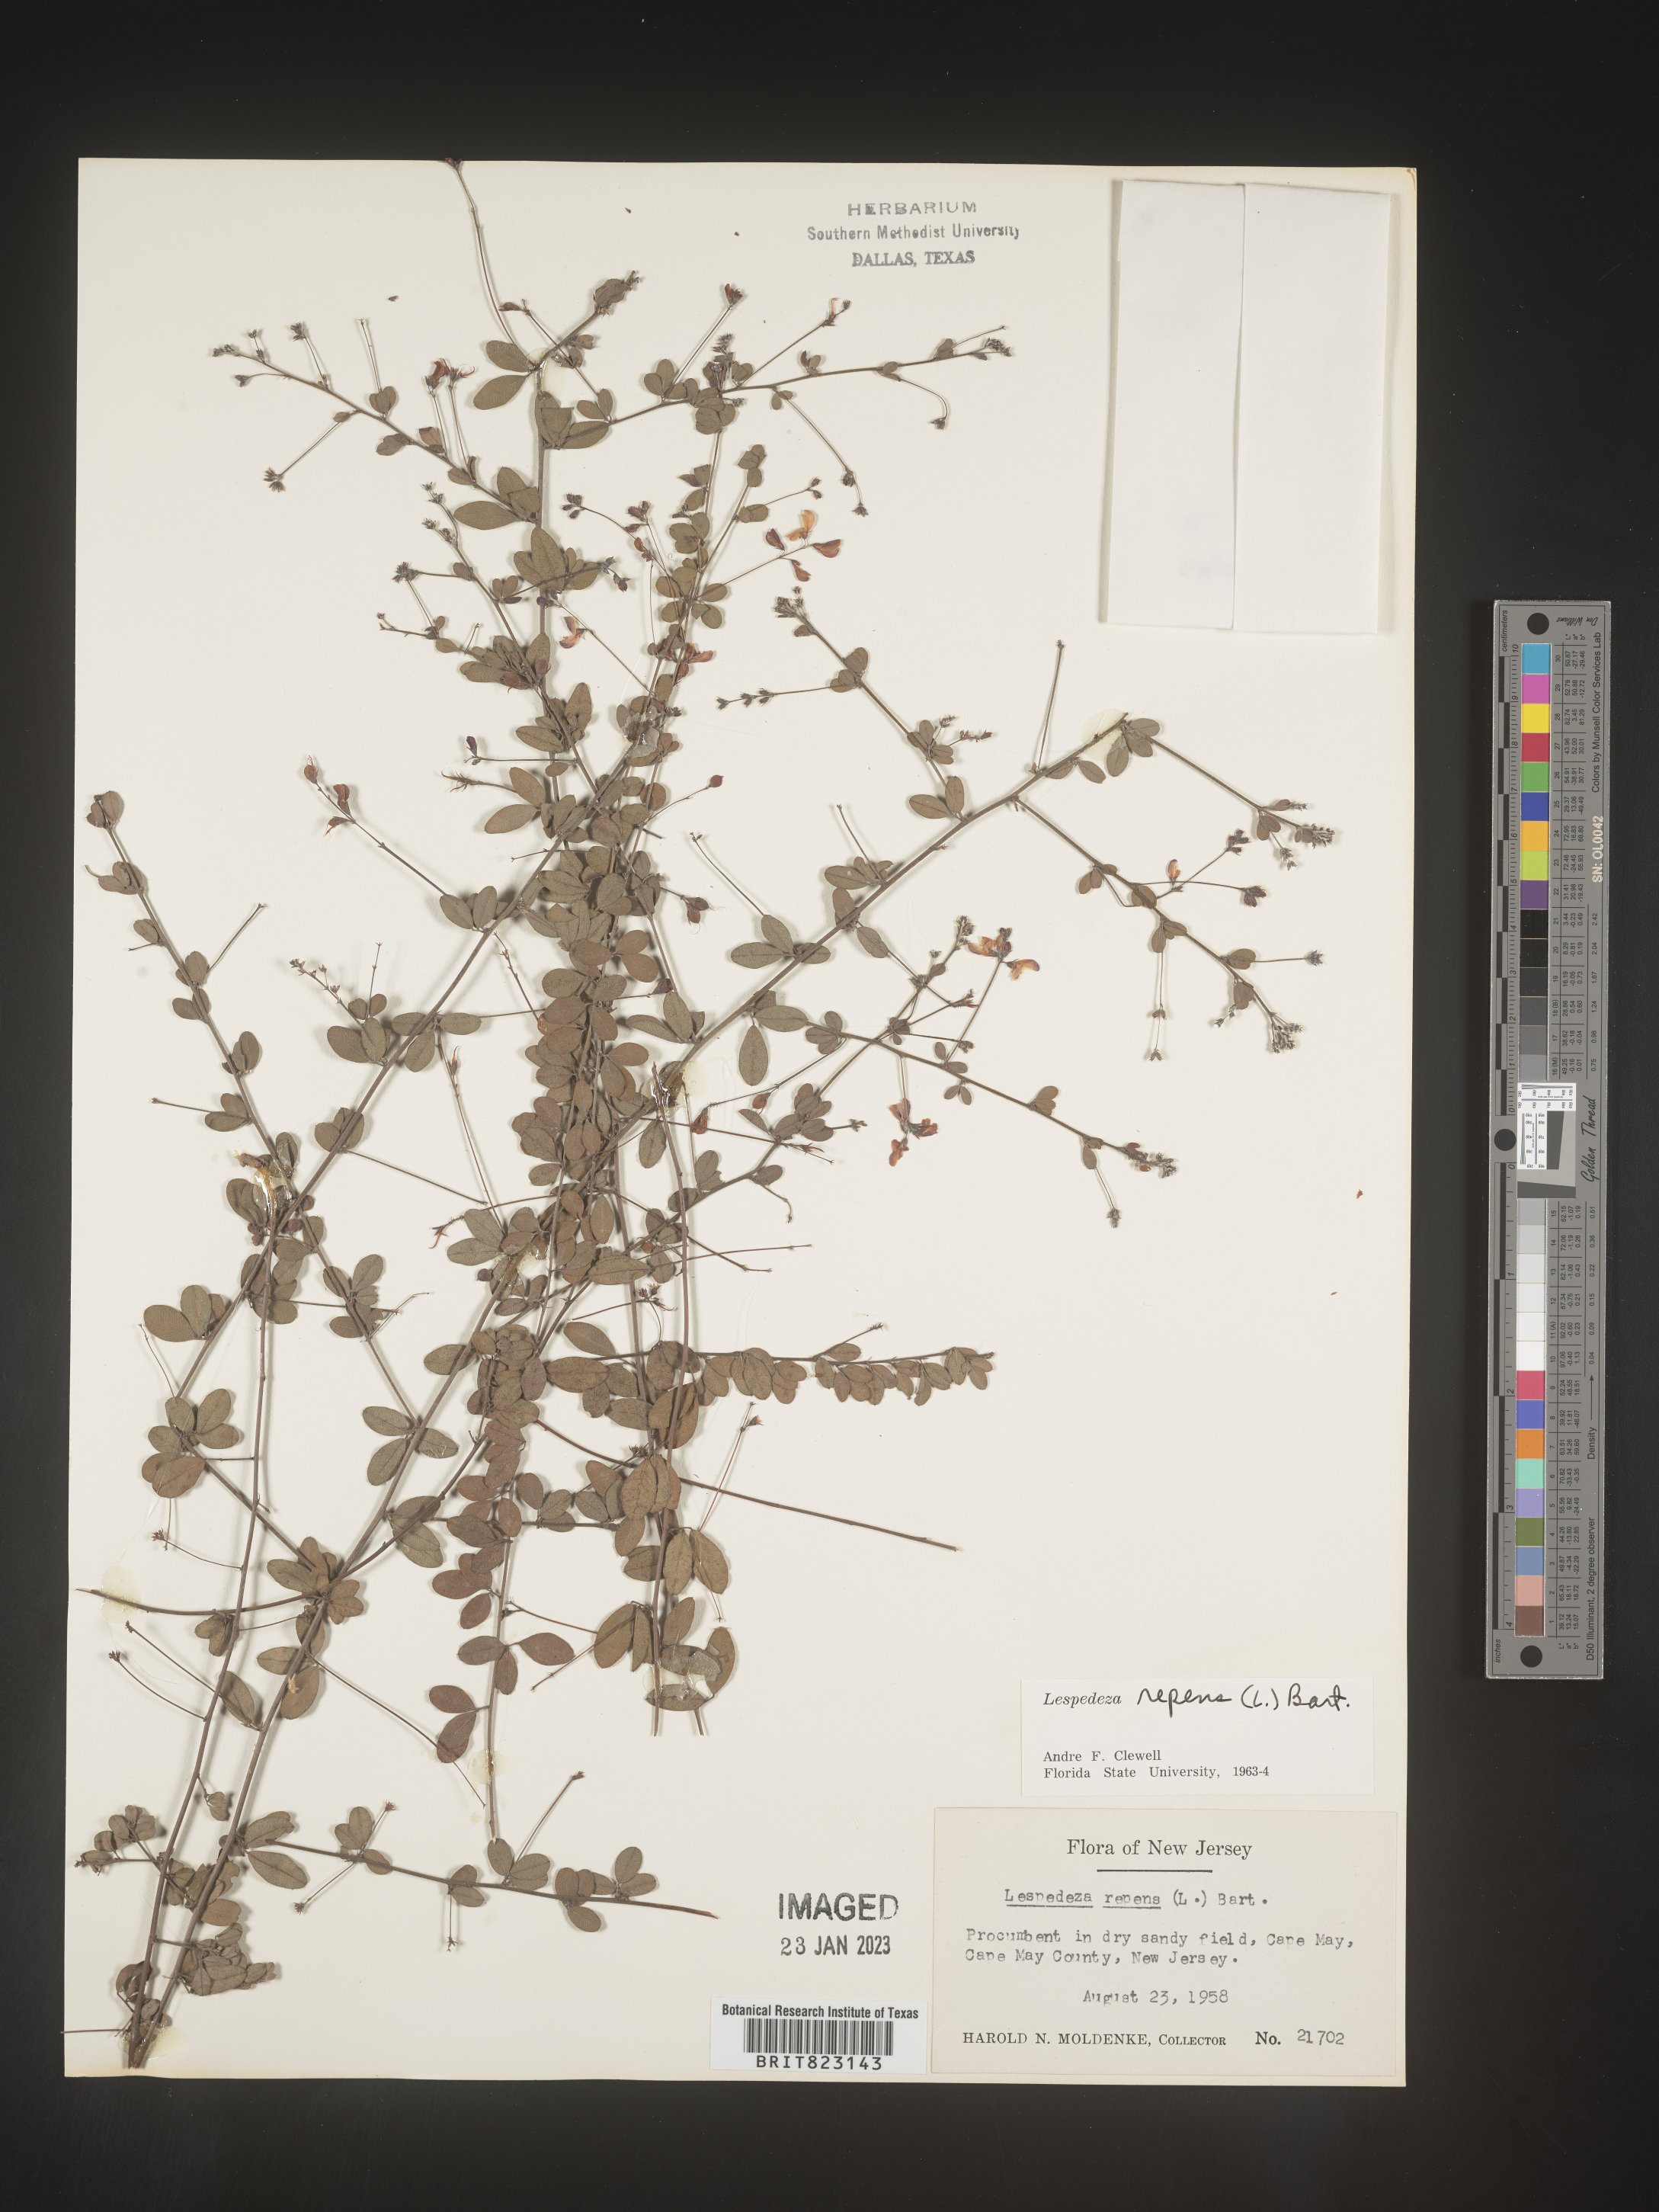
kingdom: Plantae
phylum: Tracheophyta
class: Magnoliopsida
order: Fabales
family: Fabaceae
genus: Lespedeza
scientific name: Lespedeza repens
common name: Creeping bush-clover
